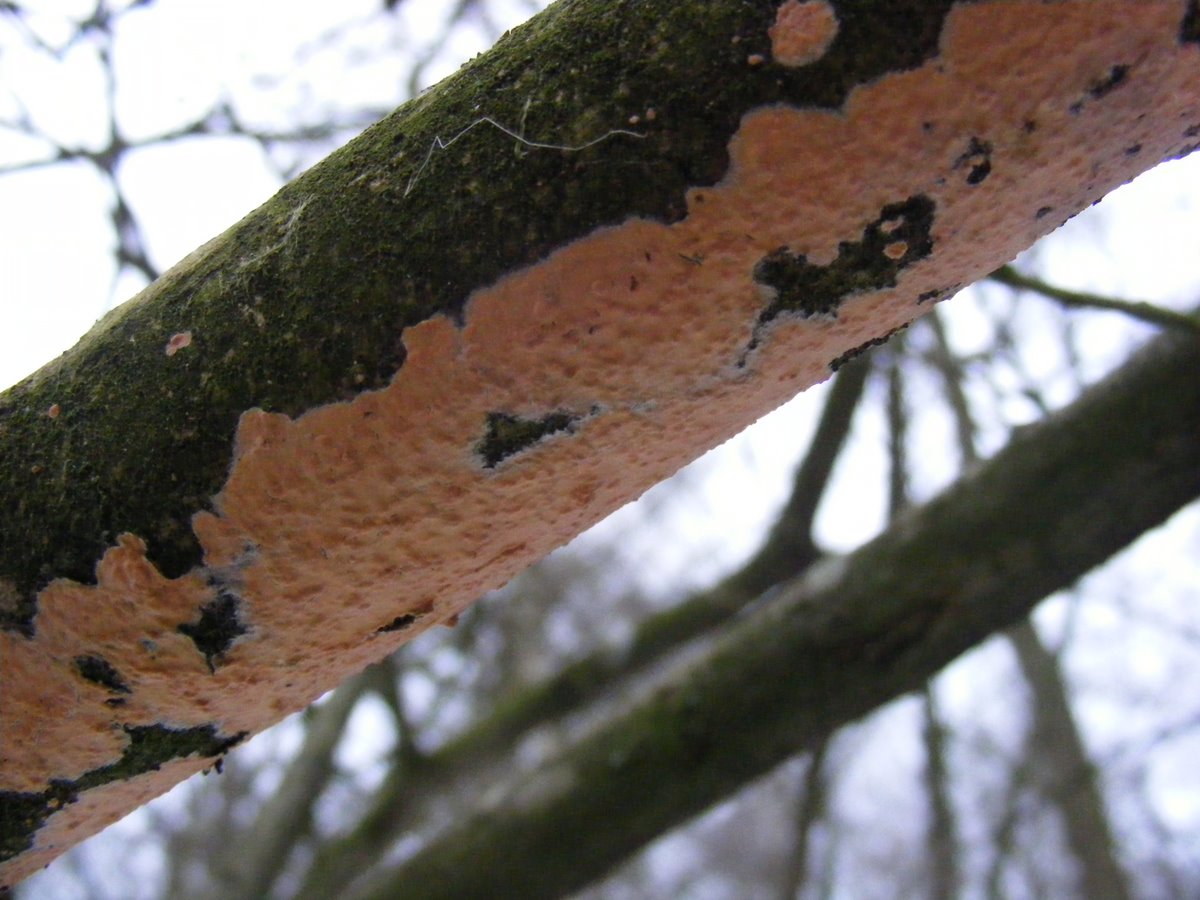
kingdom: Fungi
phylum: Basidiomycota
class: Agaricomycetes
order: Russulales
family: Peniophoraceae
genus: Peniophora
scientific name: Peniophora incarnata
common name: laksefarvet voksskind
